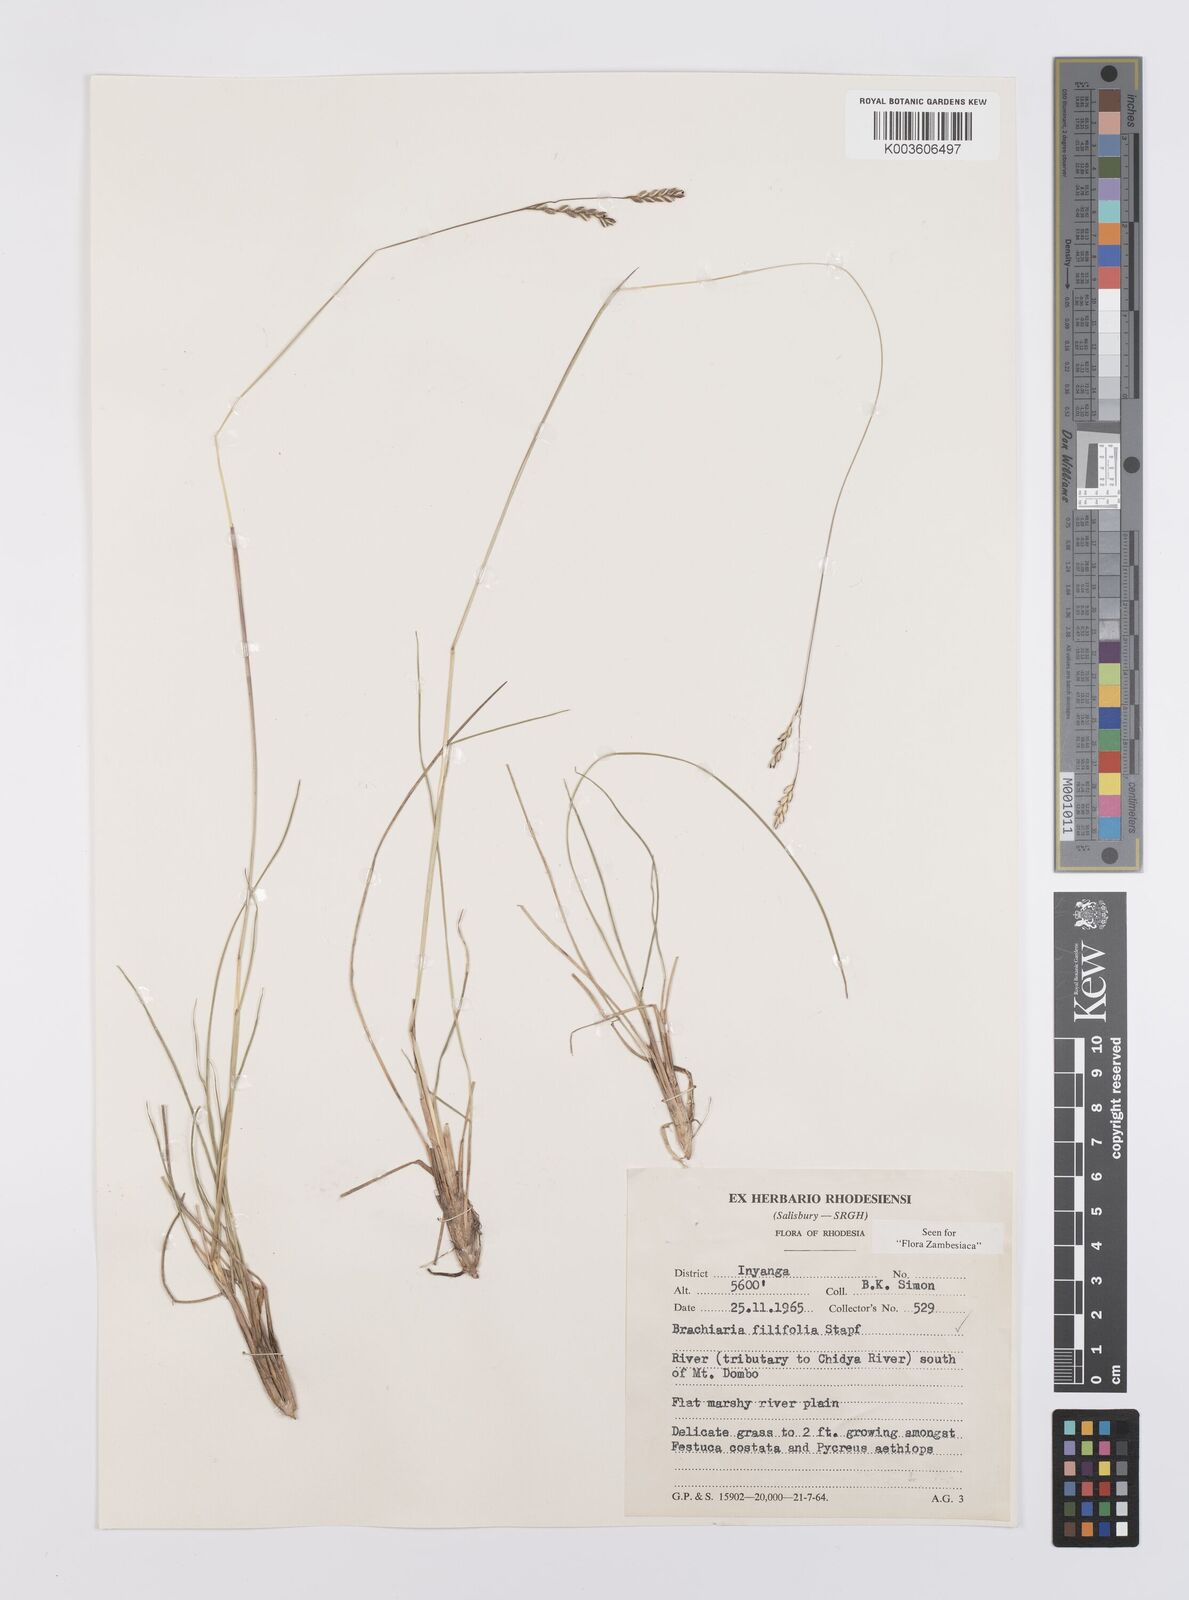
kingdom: Plantae
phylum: Tracheophyta
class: Liliopsida
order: Poales
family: Poaceae
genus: Urochloa
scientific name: Urochloa subulifolia
